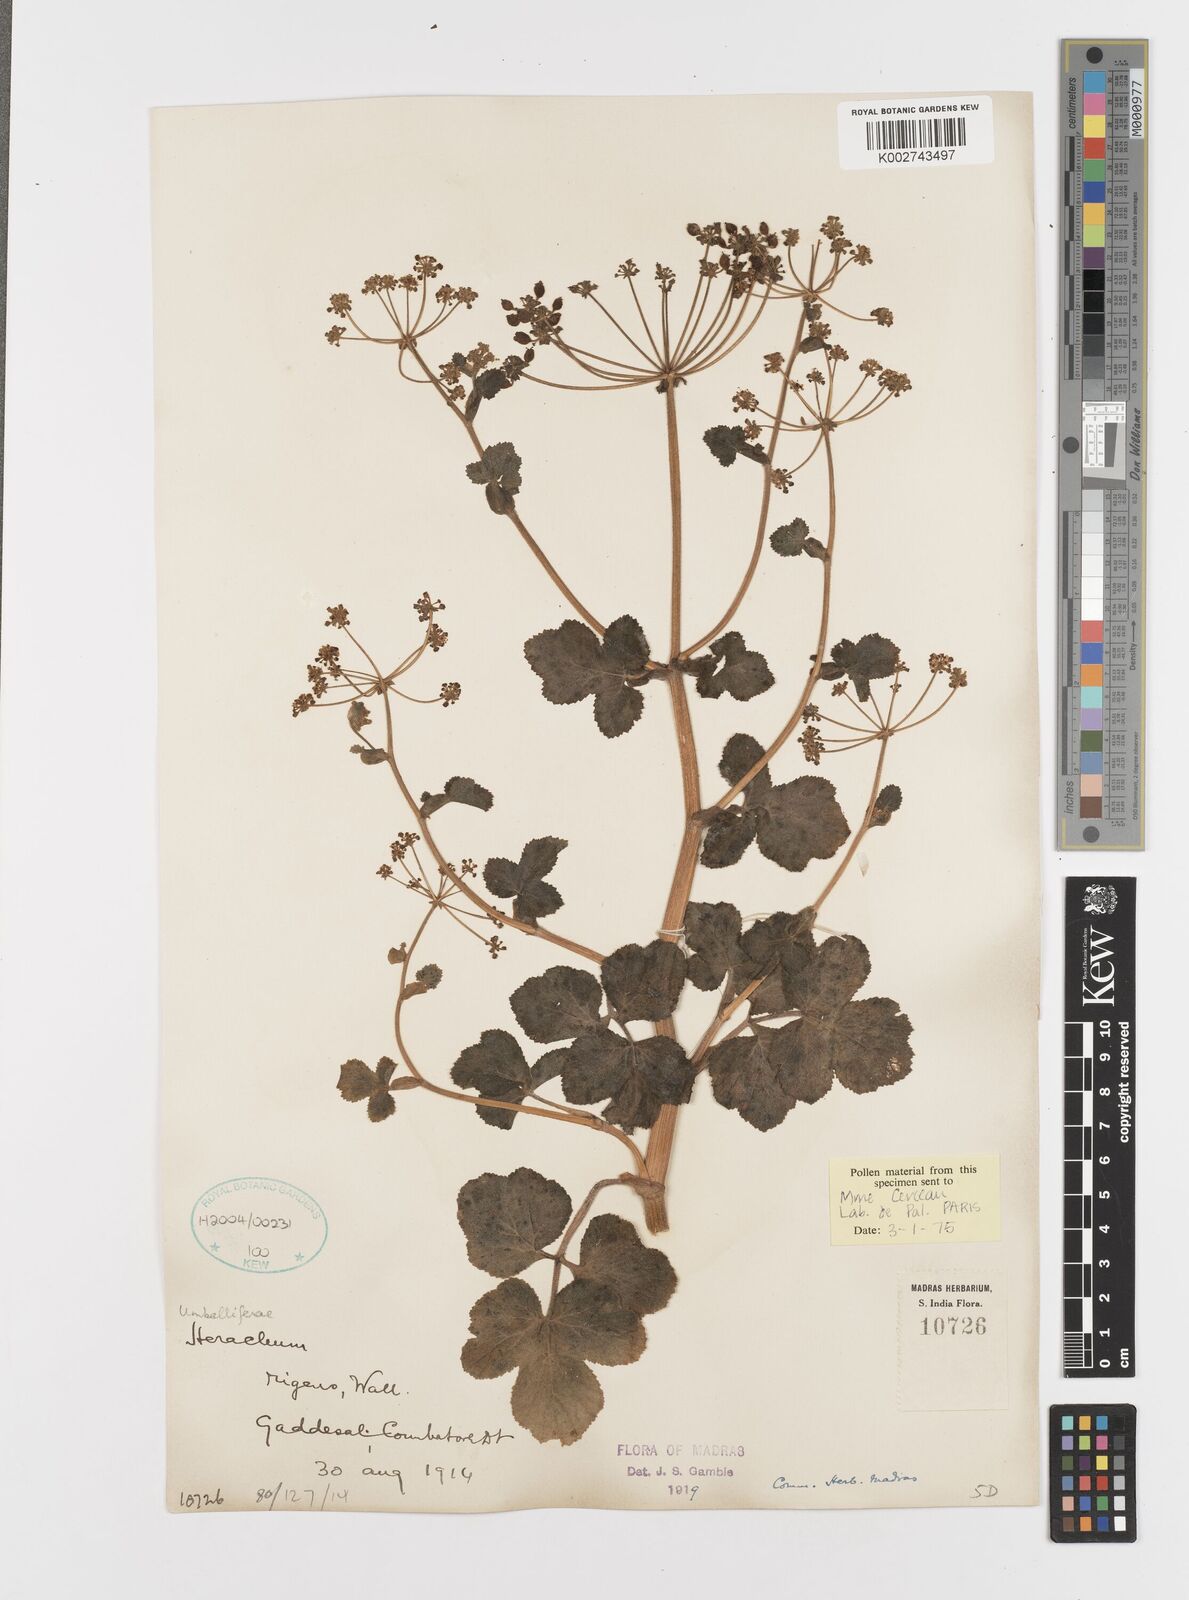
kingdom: Plantae
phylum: Tracheophyta
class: Magnoliopsida
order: Apiales
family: Apiaceae
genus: Tetrataenium
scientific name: Tetrataenium rigens
